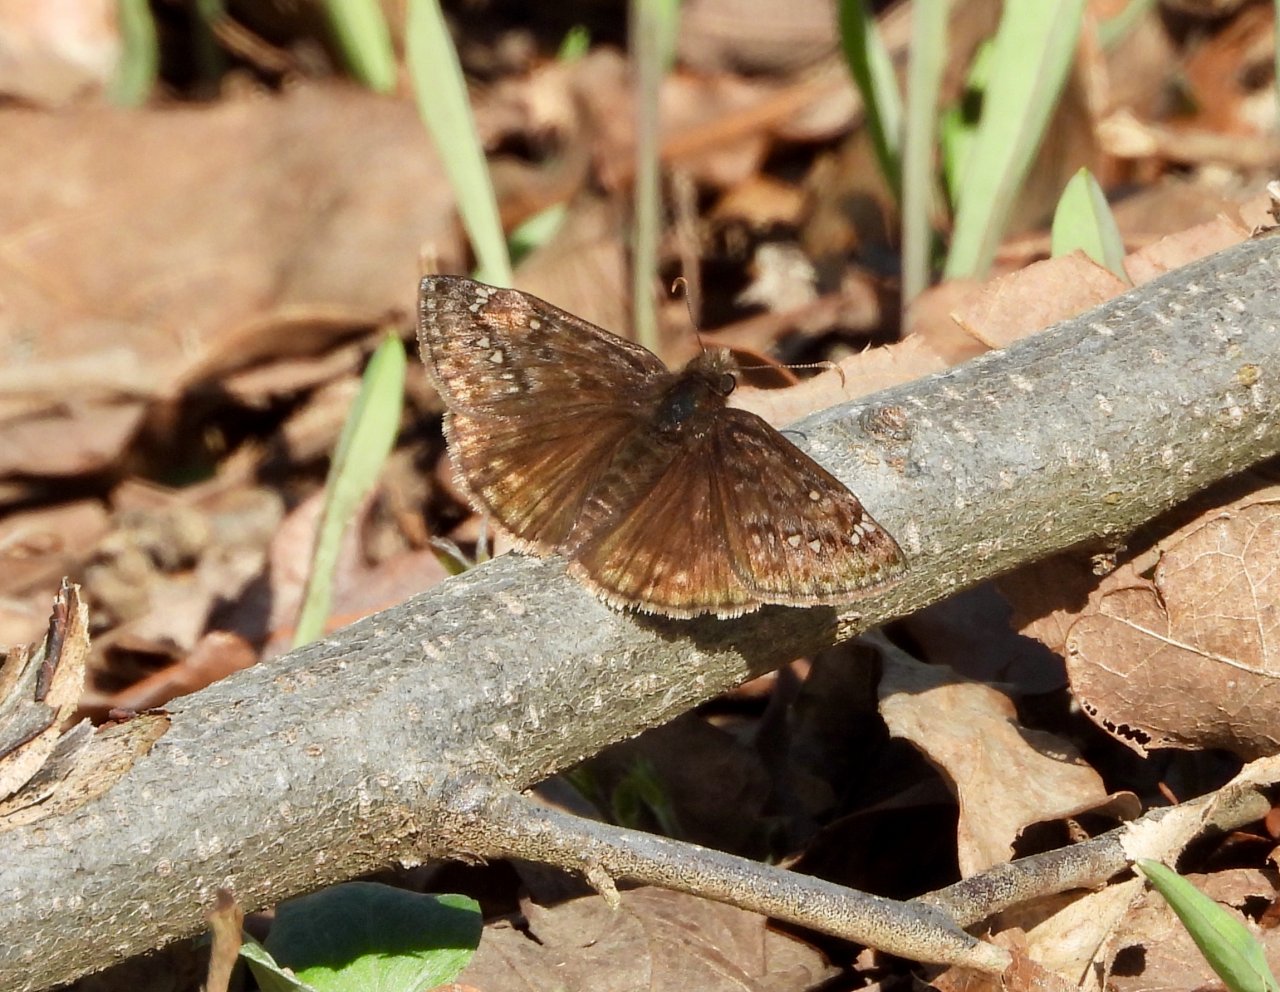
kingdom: Animalia
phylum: Arthropoda
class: Insecta
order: Lepidoptera
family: Hesperiidae
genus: Gesta
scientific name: Gesta
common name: Horace's Duskywing
